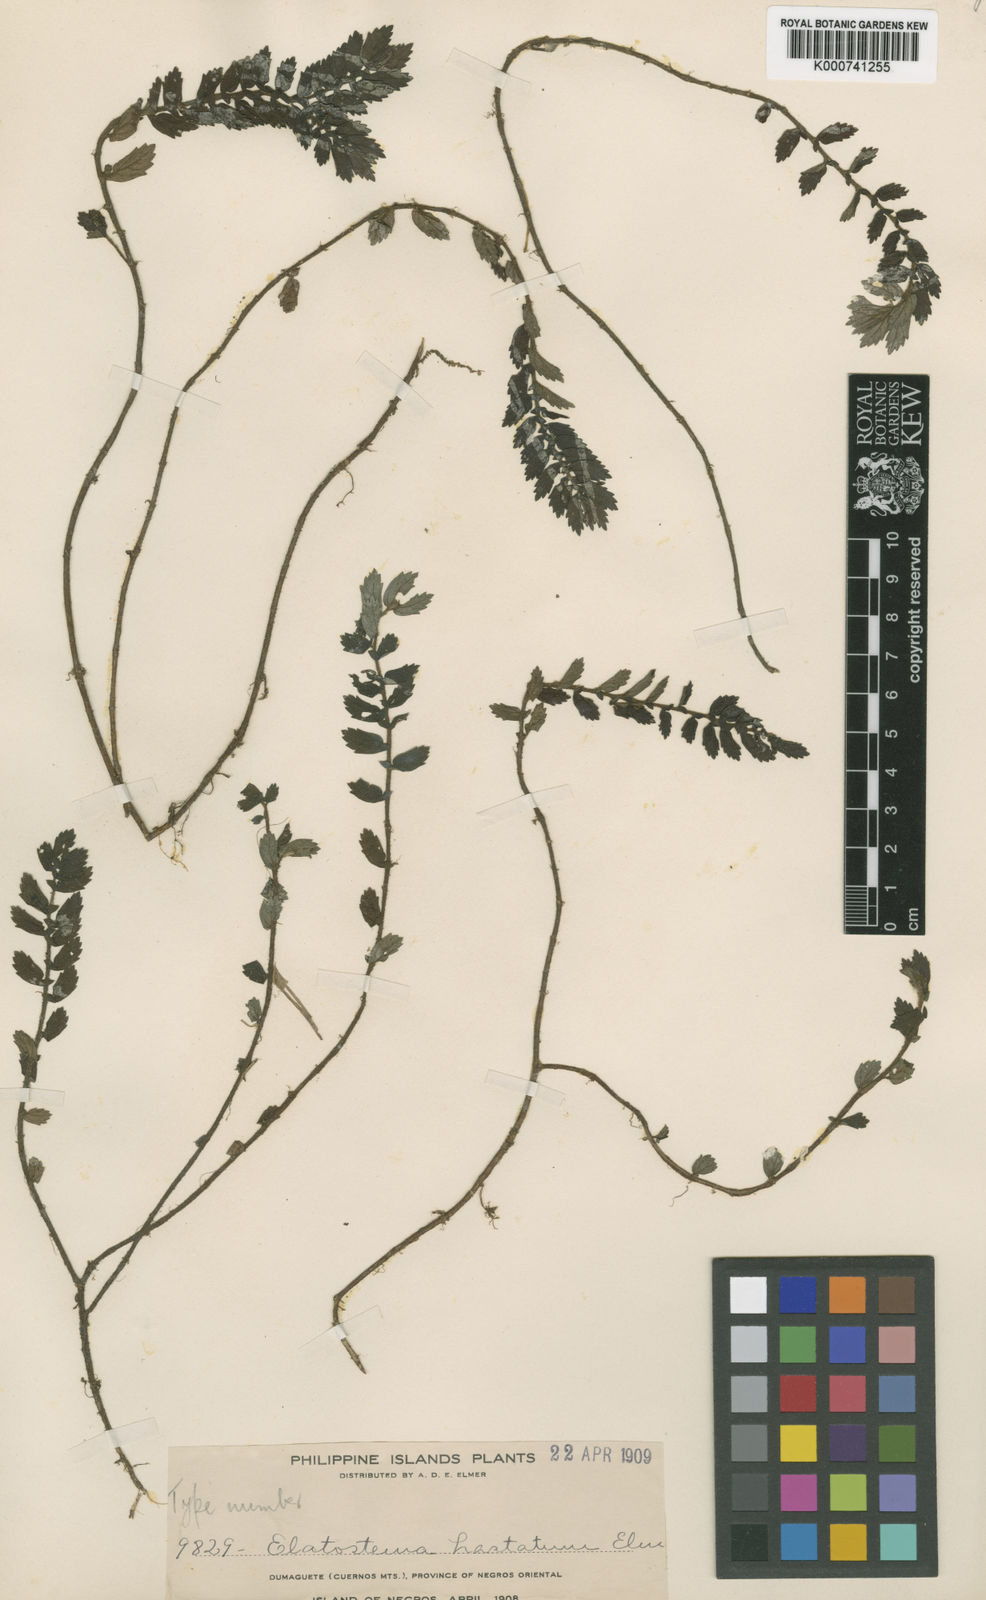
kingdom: Plantae
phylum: Tracheophyta
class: Magnoliopsida
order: Rosales
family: Urticaceae
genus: Elatostema
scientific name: Elatostema hastatum
